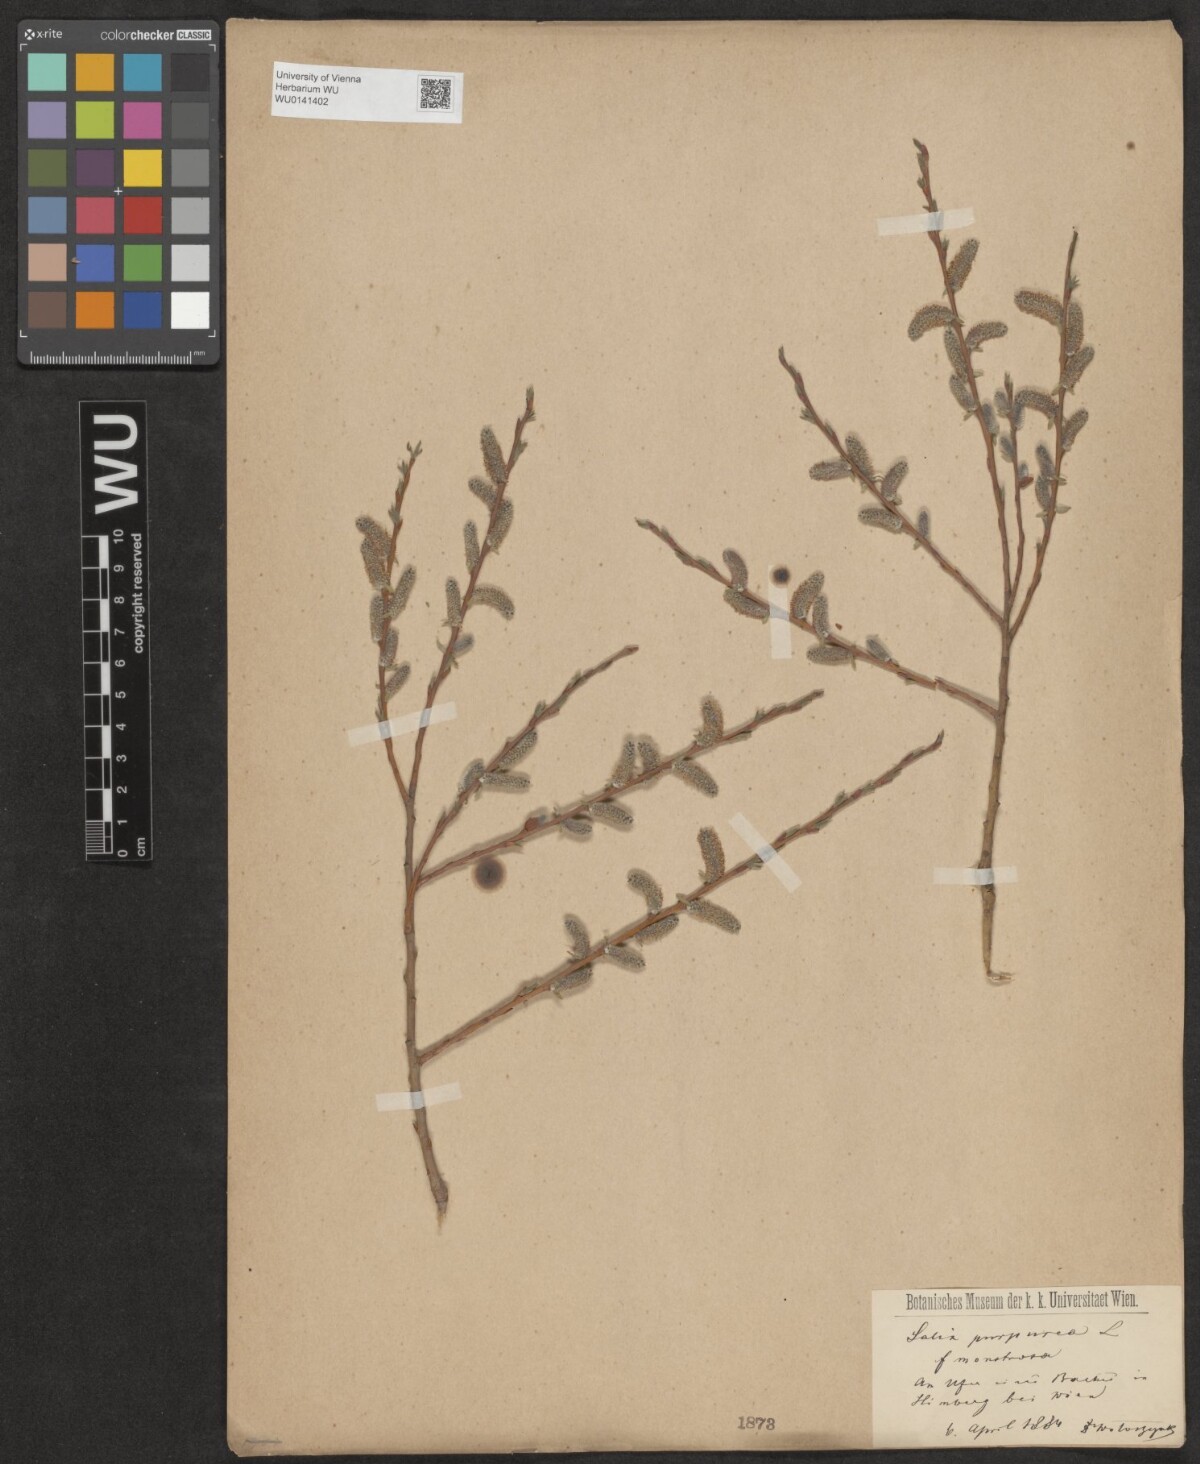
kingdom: Plantae
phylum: Tracheophyta
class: Magnoliopsida
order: Malpighiales
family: Salicaceae
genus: Salix
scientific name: Salix purpurea
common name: Purple willow
